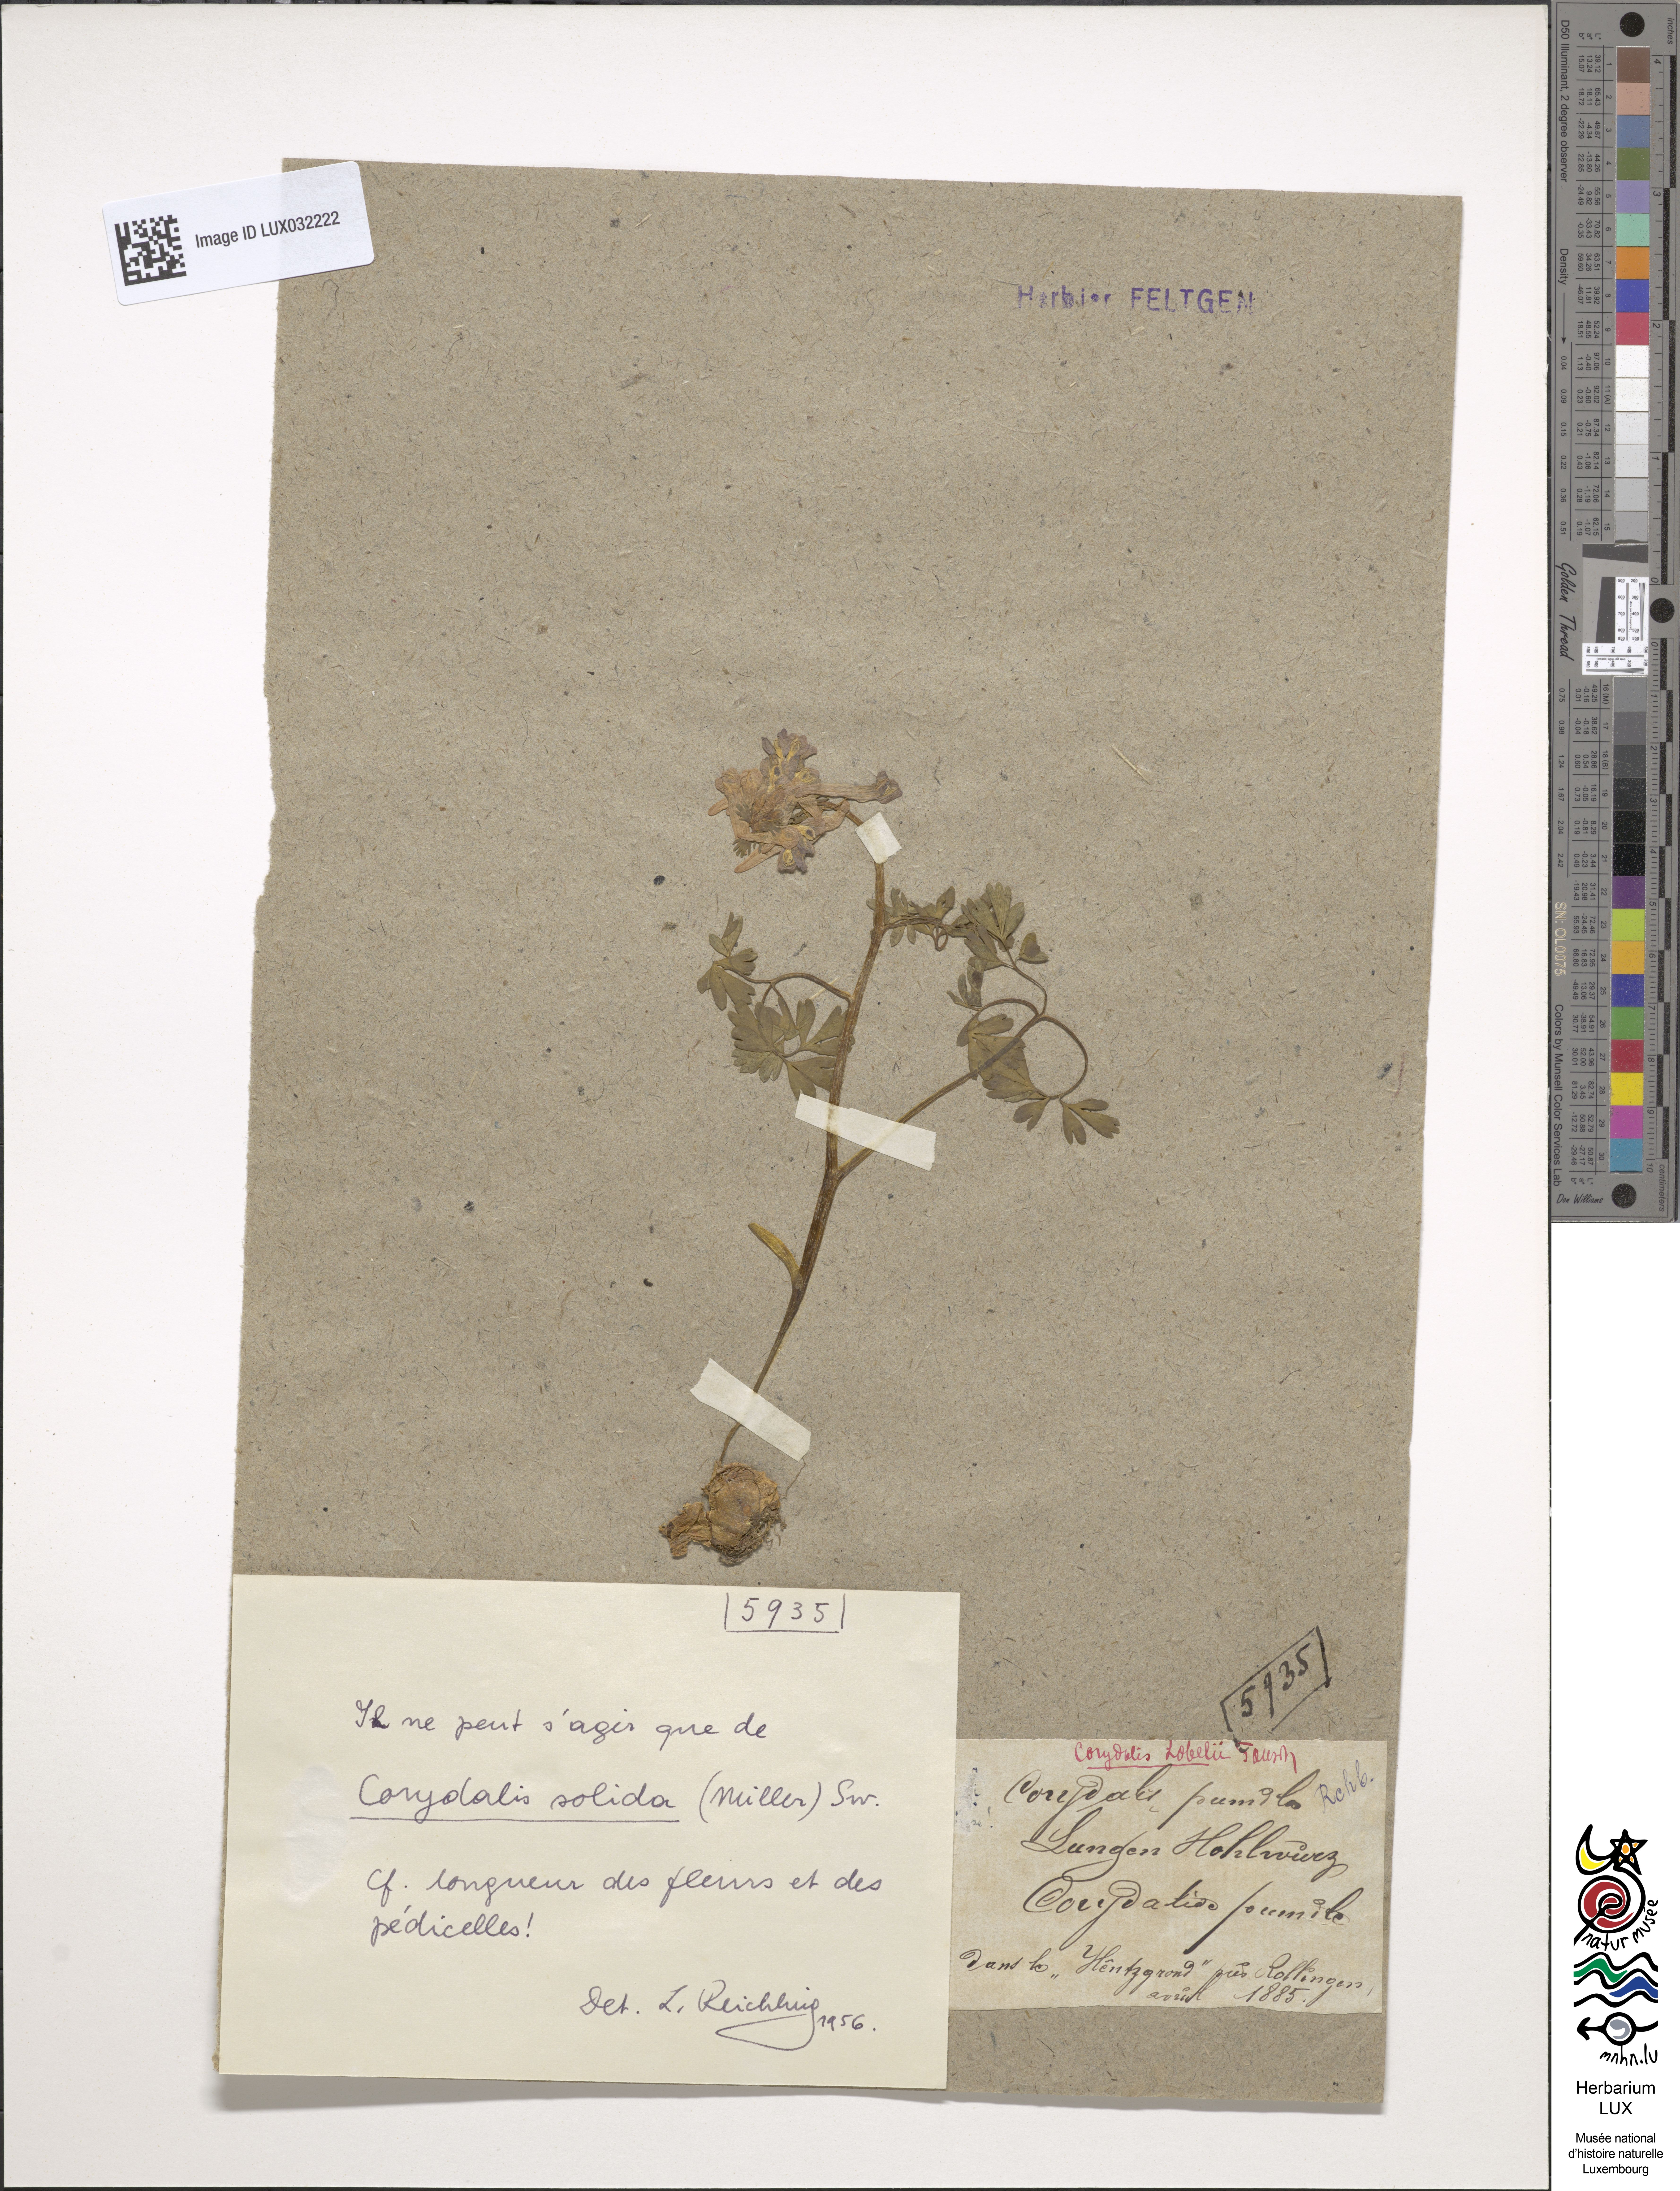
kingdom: Plantae
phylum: Tracheophyta
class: Magnoliopsida
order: Ranunculales
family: Papaveraceae
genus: Corydalis
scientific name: Corydalis pumila
